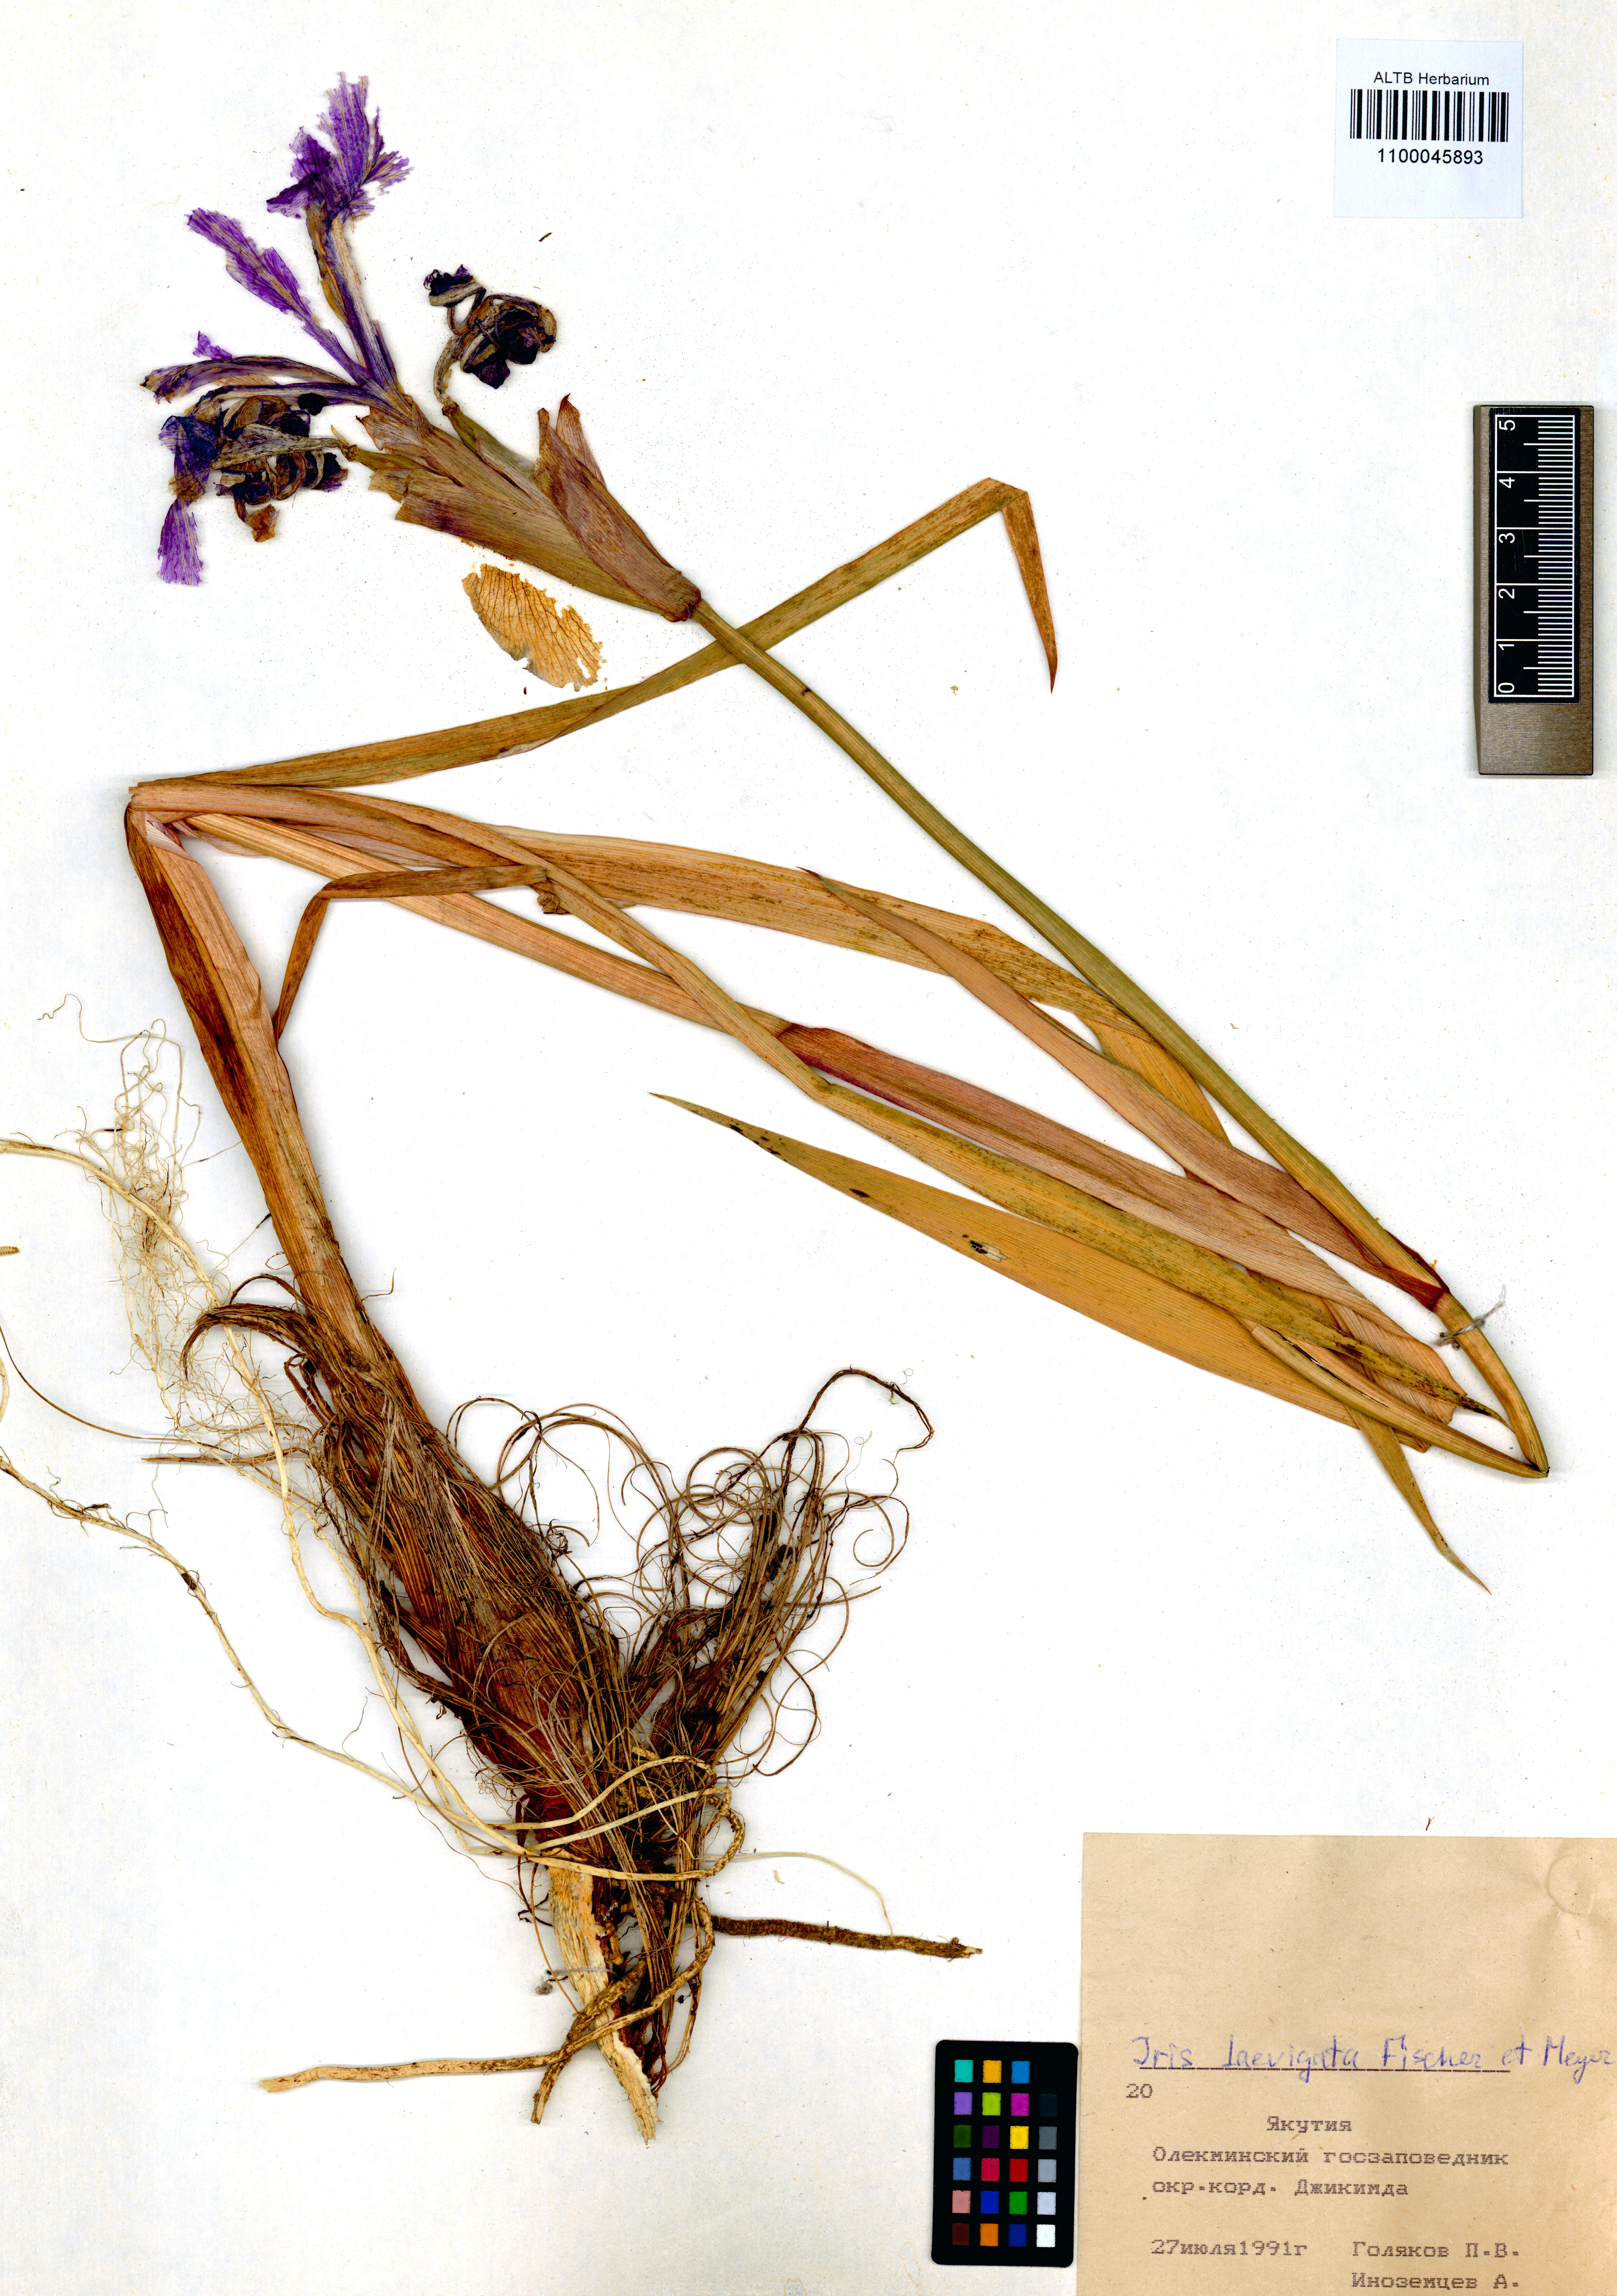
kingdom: Plantae
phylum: Tracheophyta
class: Liliopsida
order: Asparagales
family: Iridaceae
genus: Iris
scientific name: Iris laevigata
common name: Japanese iris
